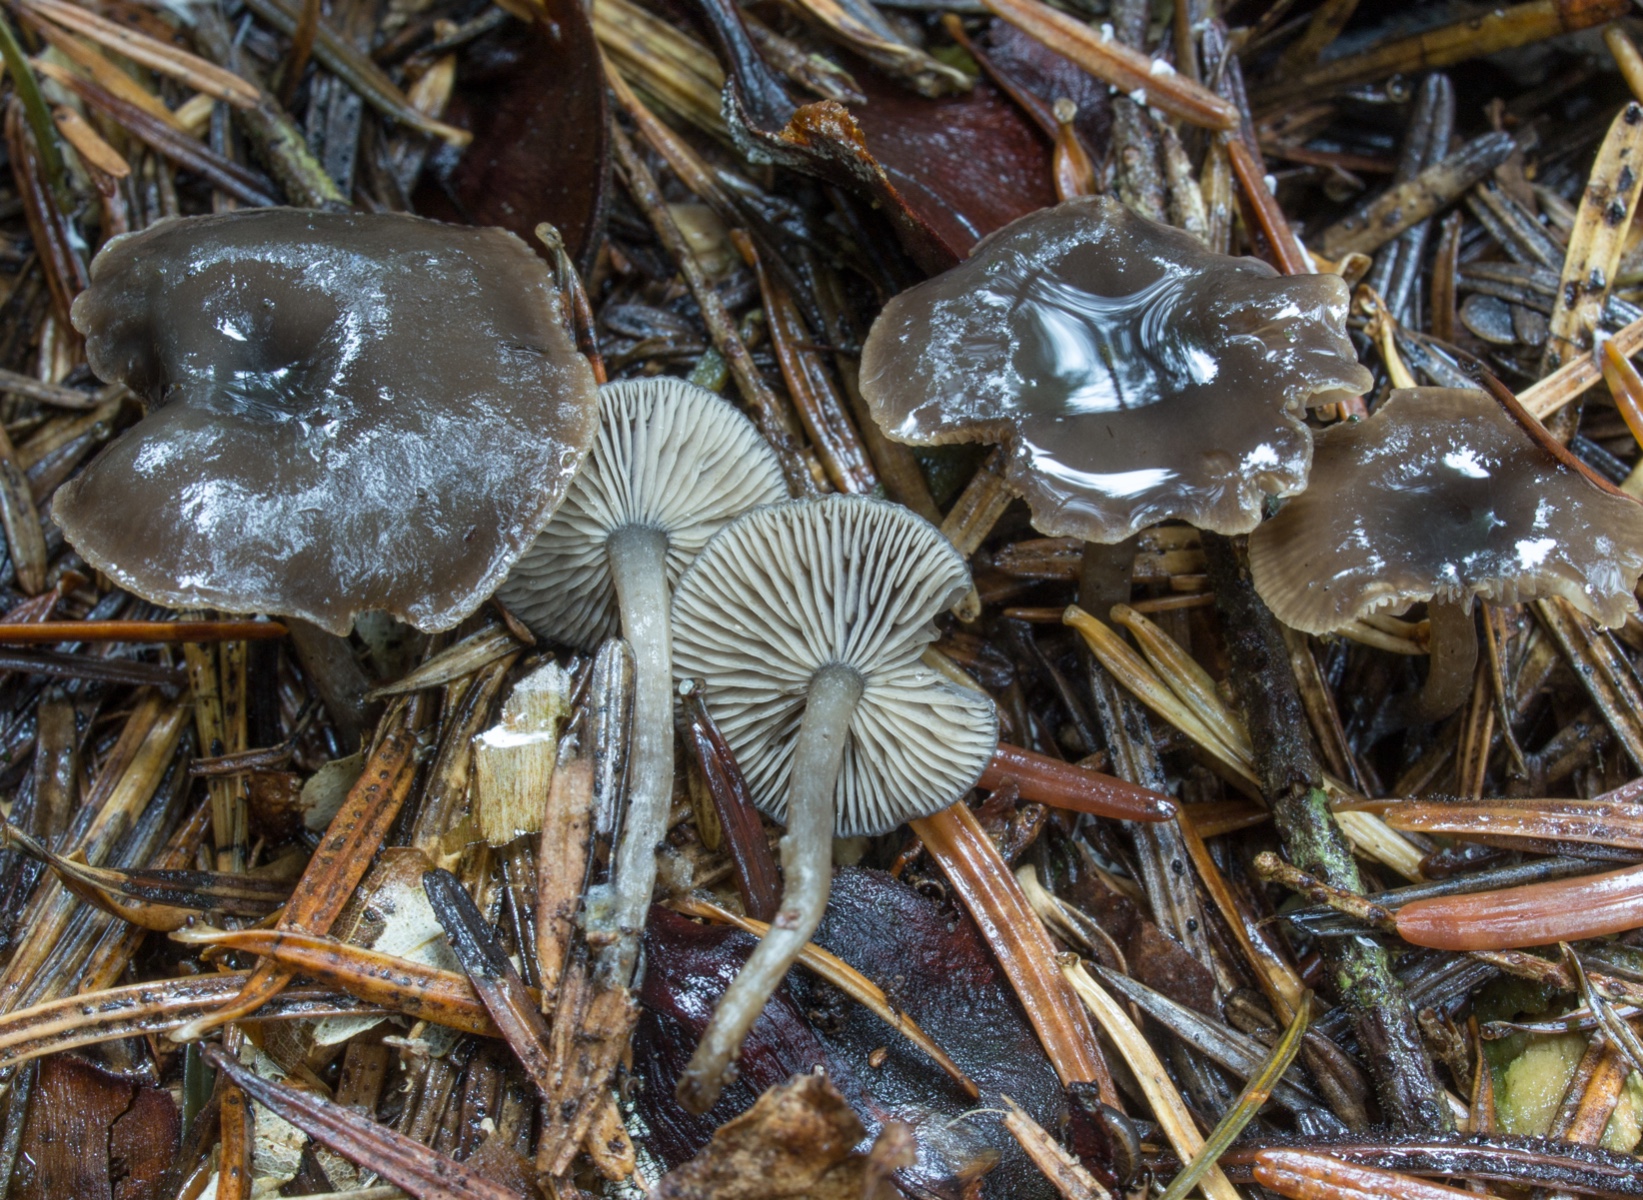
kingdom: Fungi
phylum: Basidiomycota
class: Agaricomycetes
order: Agaricales
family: Lyophyllaceae
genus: Tephrocybe
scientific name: Tephrocybe osmophora
